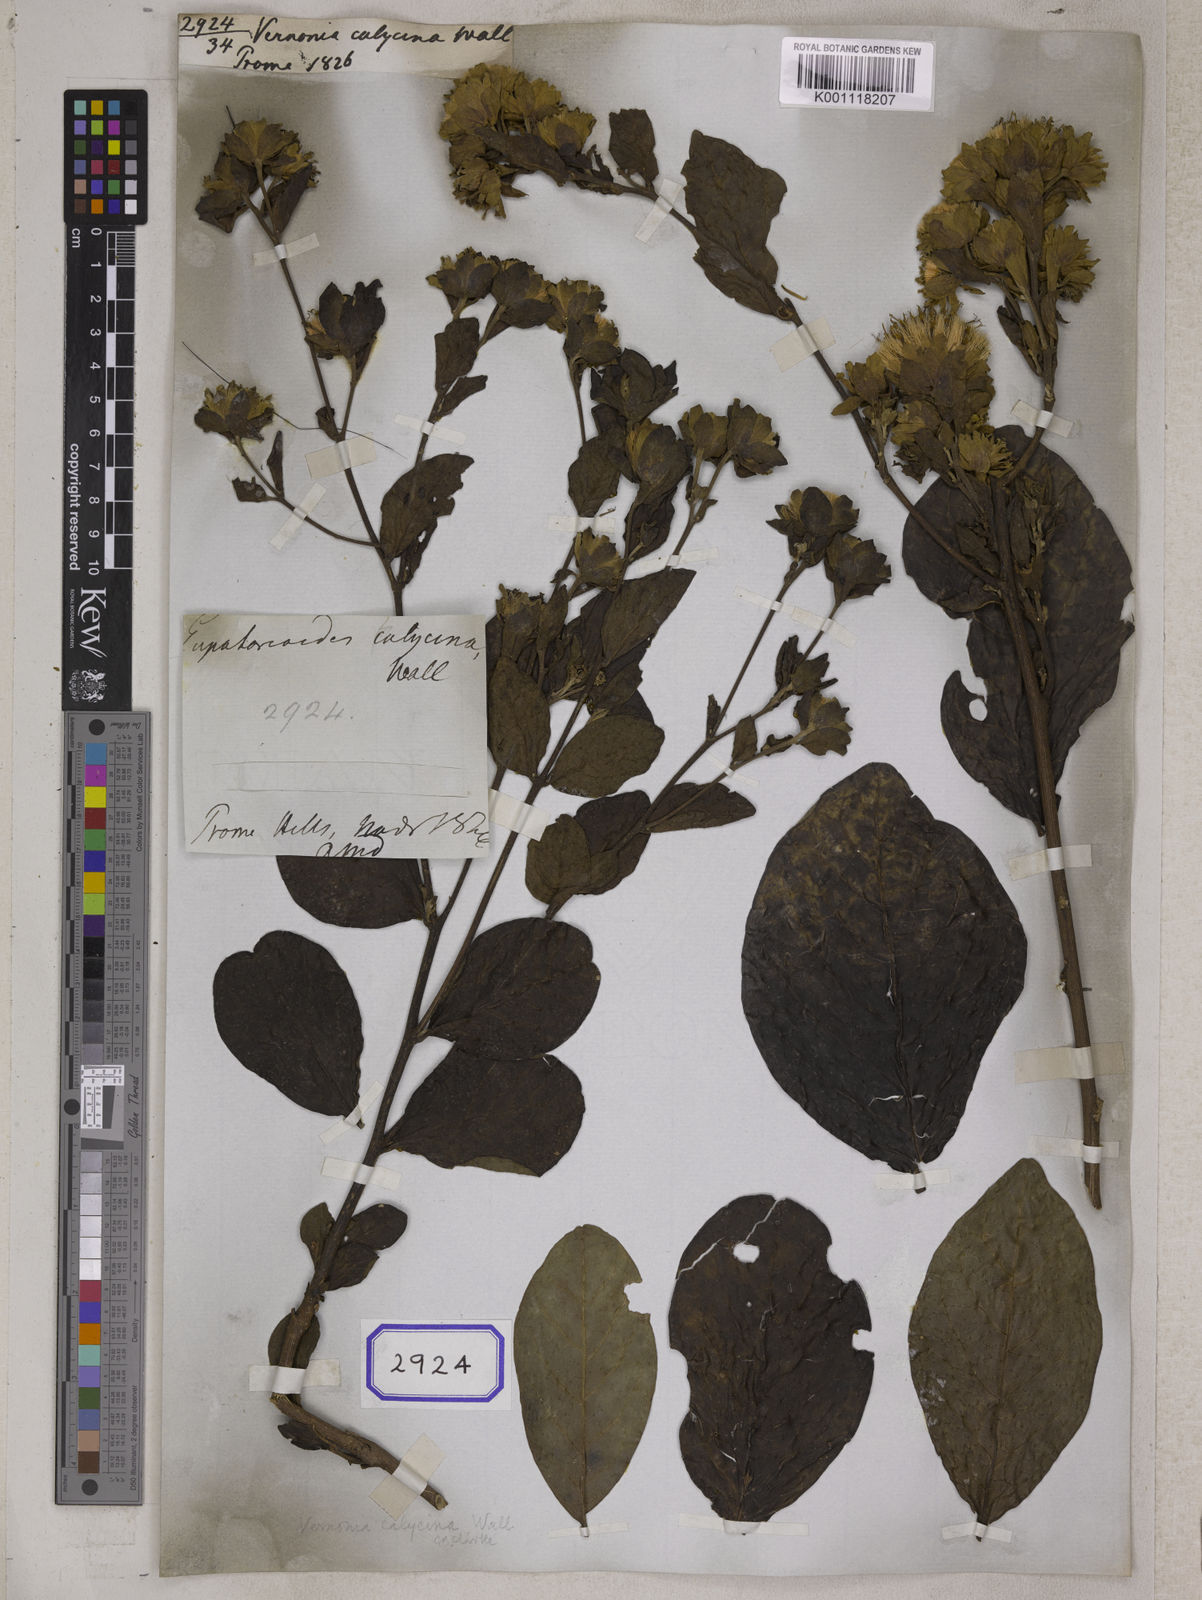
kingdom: Plantae
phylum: Tracheophyta
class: Magnoliopsida
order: Asterales
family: Asteraceae
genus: Vernonia
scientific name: Vernonia
